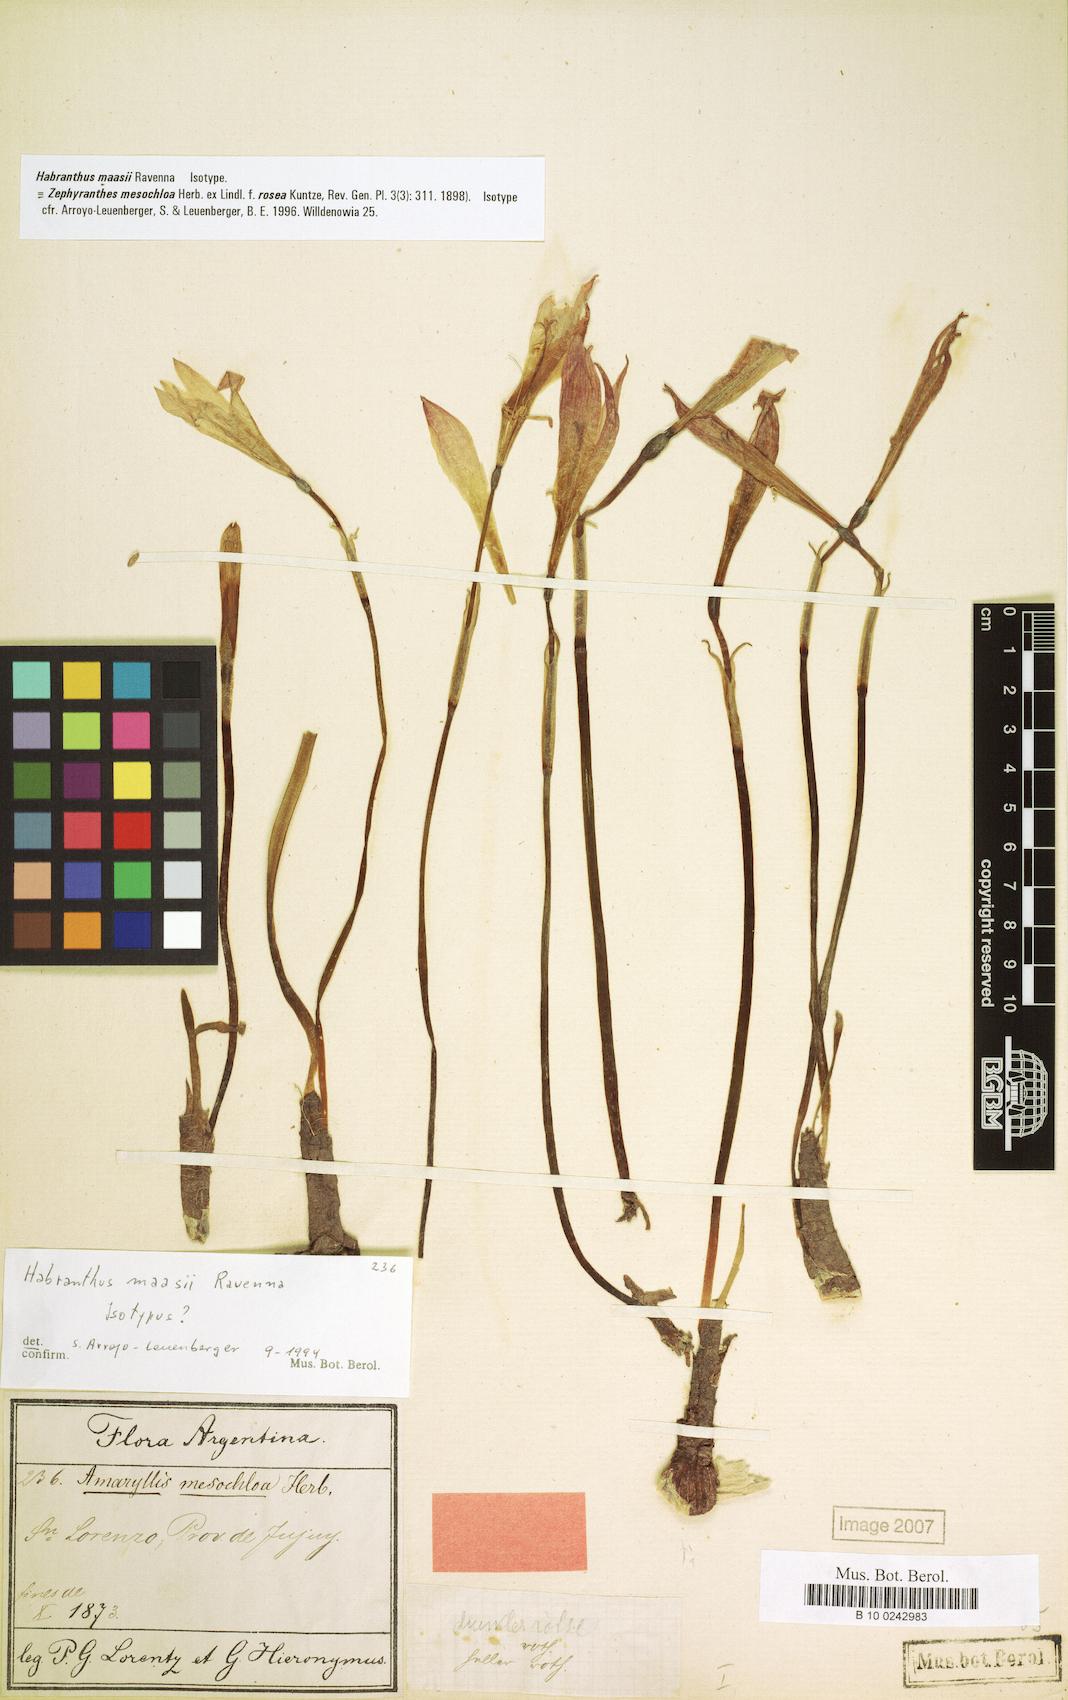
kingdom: Plantae
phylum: Tracheophyta
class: Liliopsida
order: Asparagales
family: Amaryllidaceae
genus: Zephyranthes
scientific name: Zephyranthes Habranthus maasii
